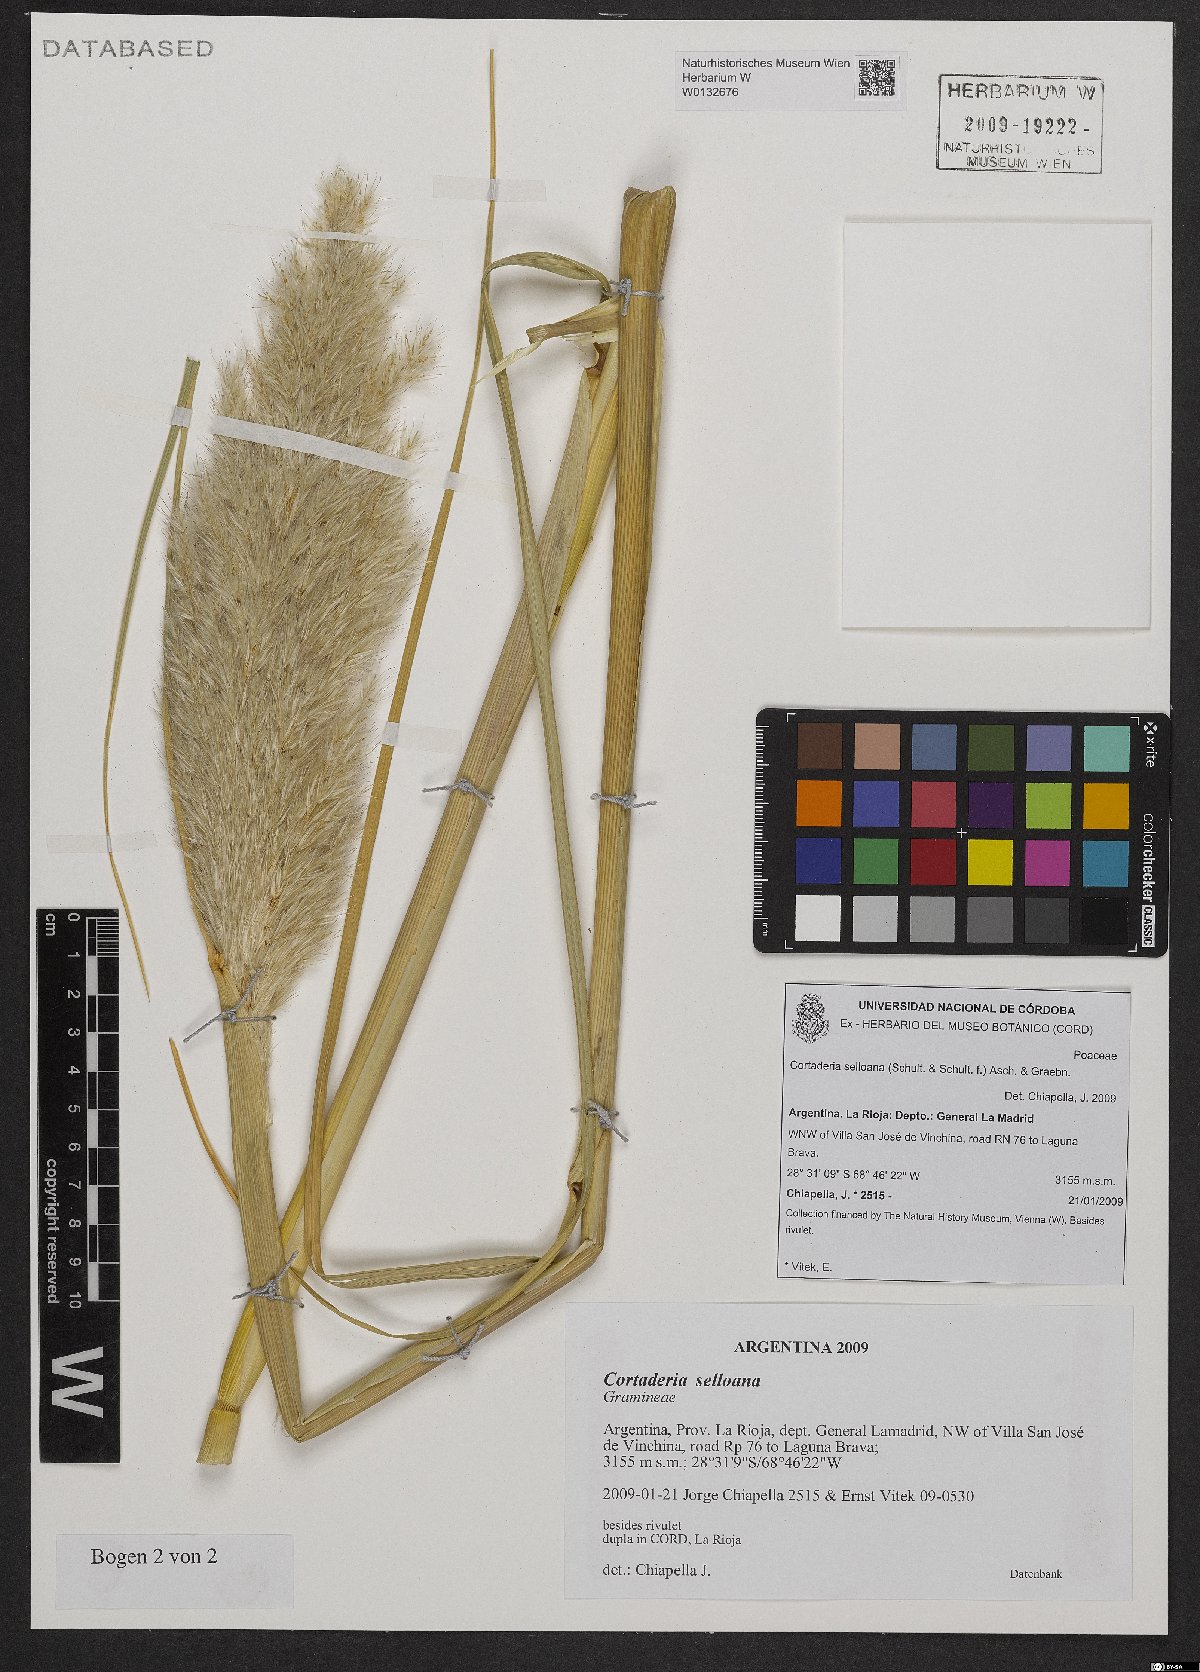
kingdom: Plantae
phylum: Tracheophyta
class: Liliopsida
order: Poales
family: Poaceae
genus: Cortaderia
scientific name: Cortaderia selloana
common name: Uruguayan pampas grass
